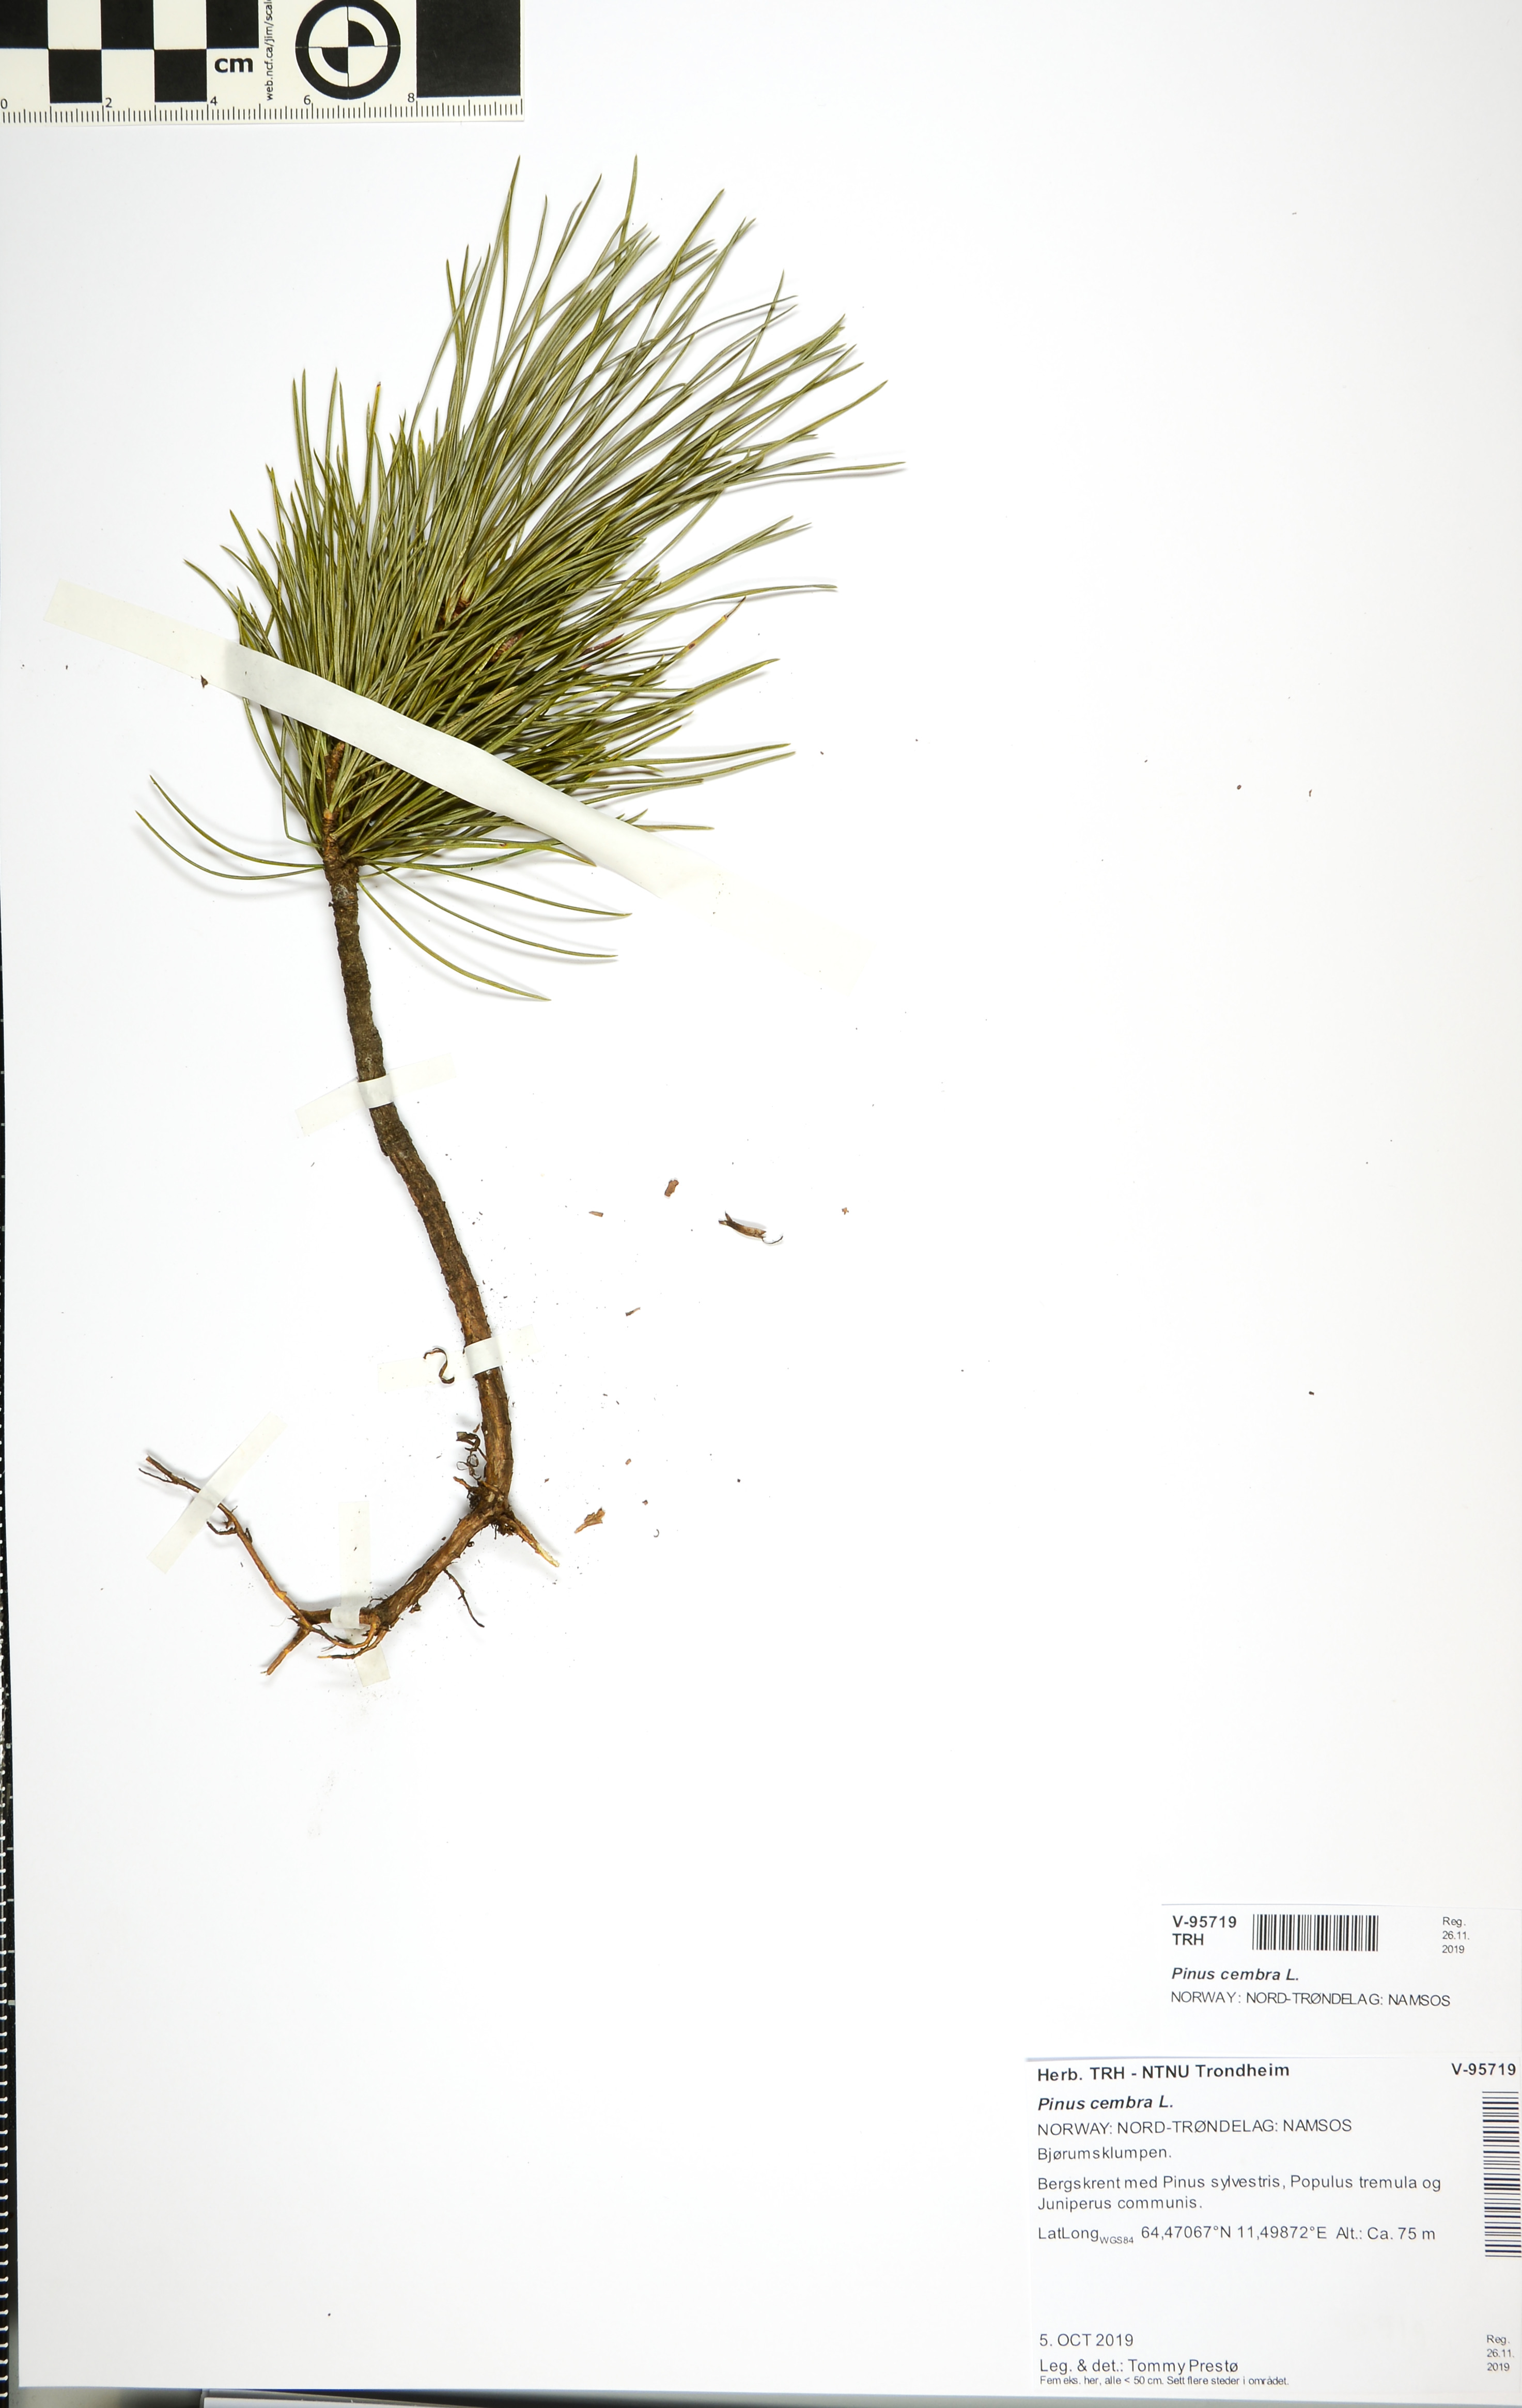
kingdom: Plantae
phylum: Tracheophyta
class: Pinopsida
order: Pinales
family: Pinaceae
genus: Pinus
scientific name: Pinus cembra
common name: Arolla pine
